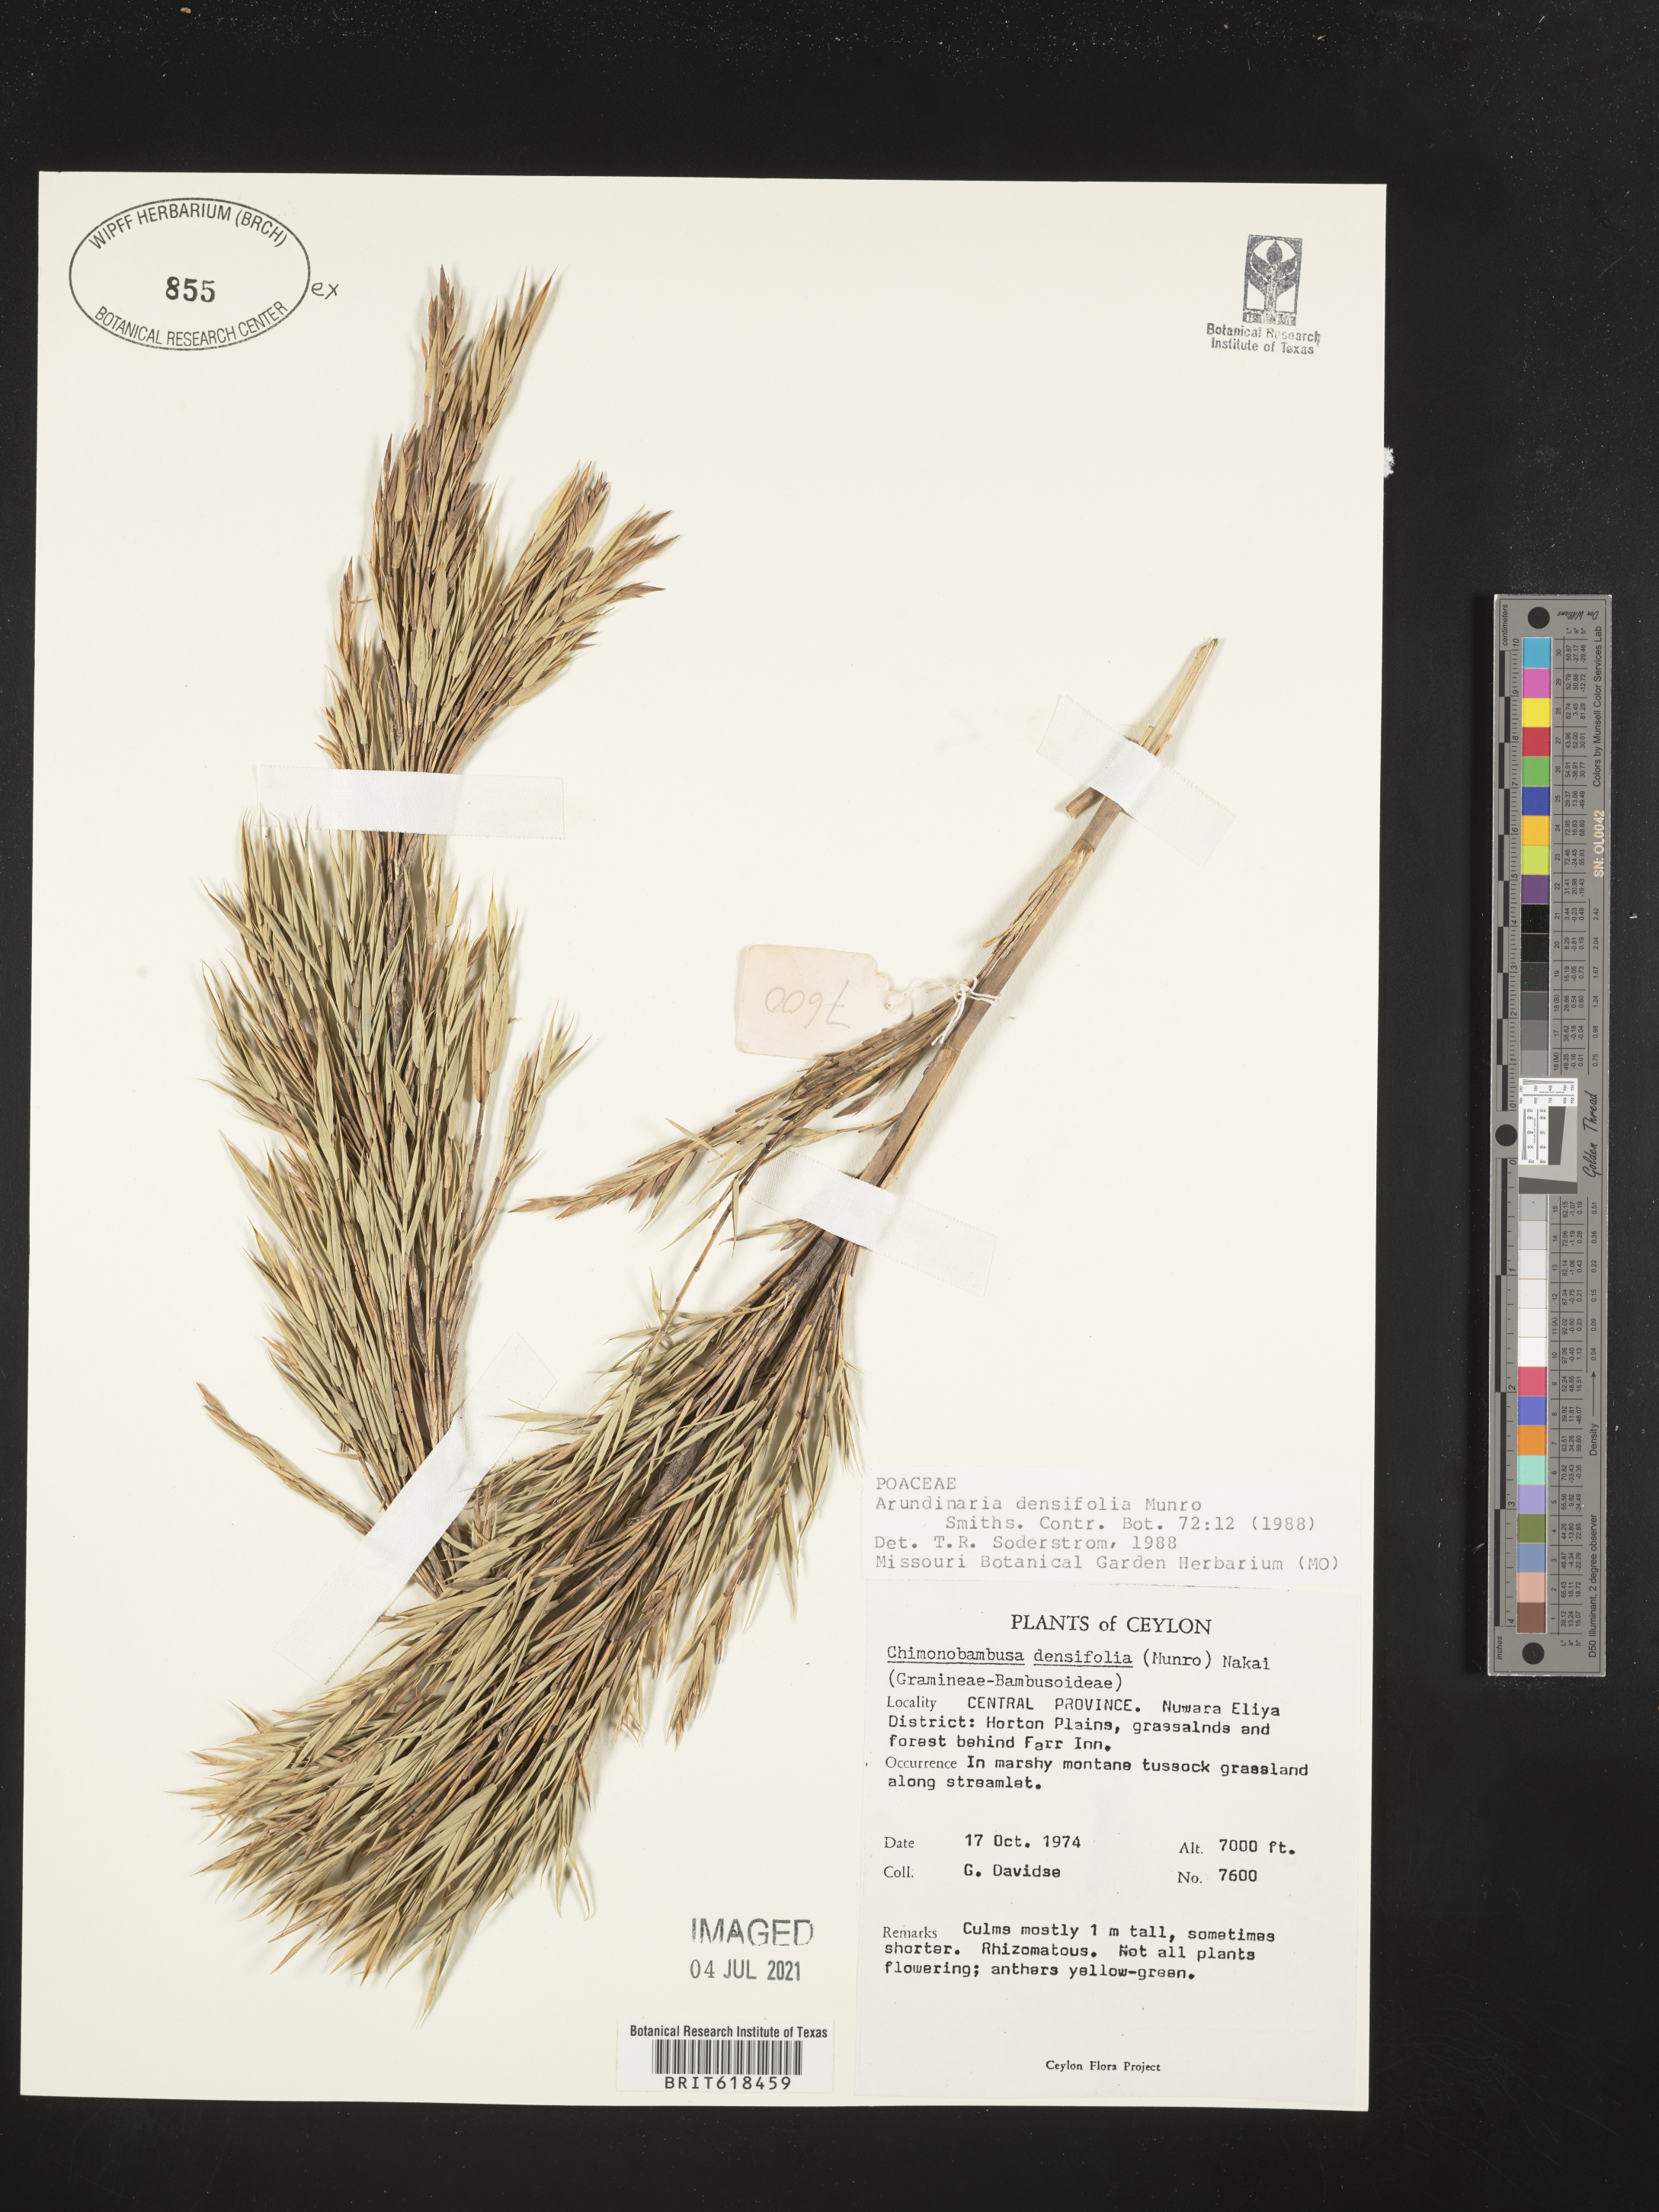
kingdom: Plantae
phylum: Tracheophyta
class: Liliopsida
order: Poales
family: Poaceae
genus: Kuruna
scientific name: Kuruna densifolia
